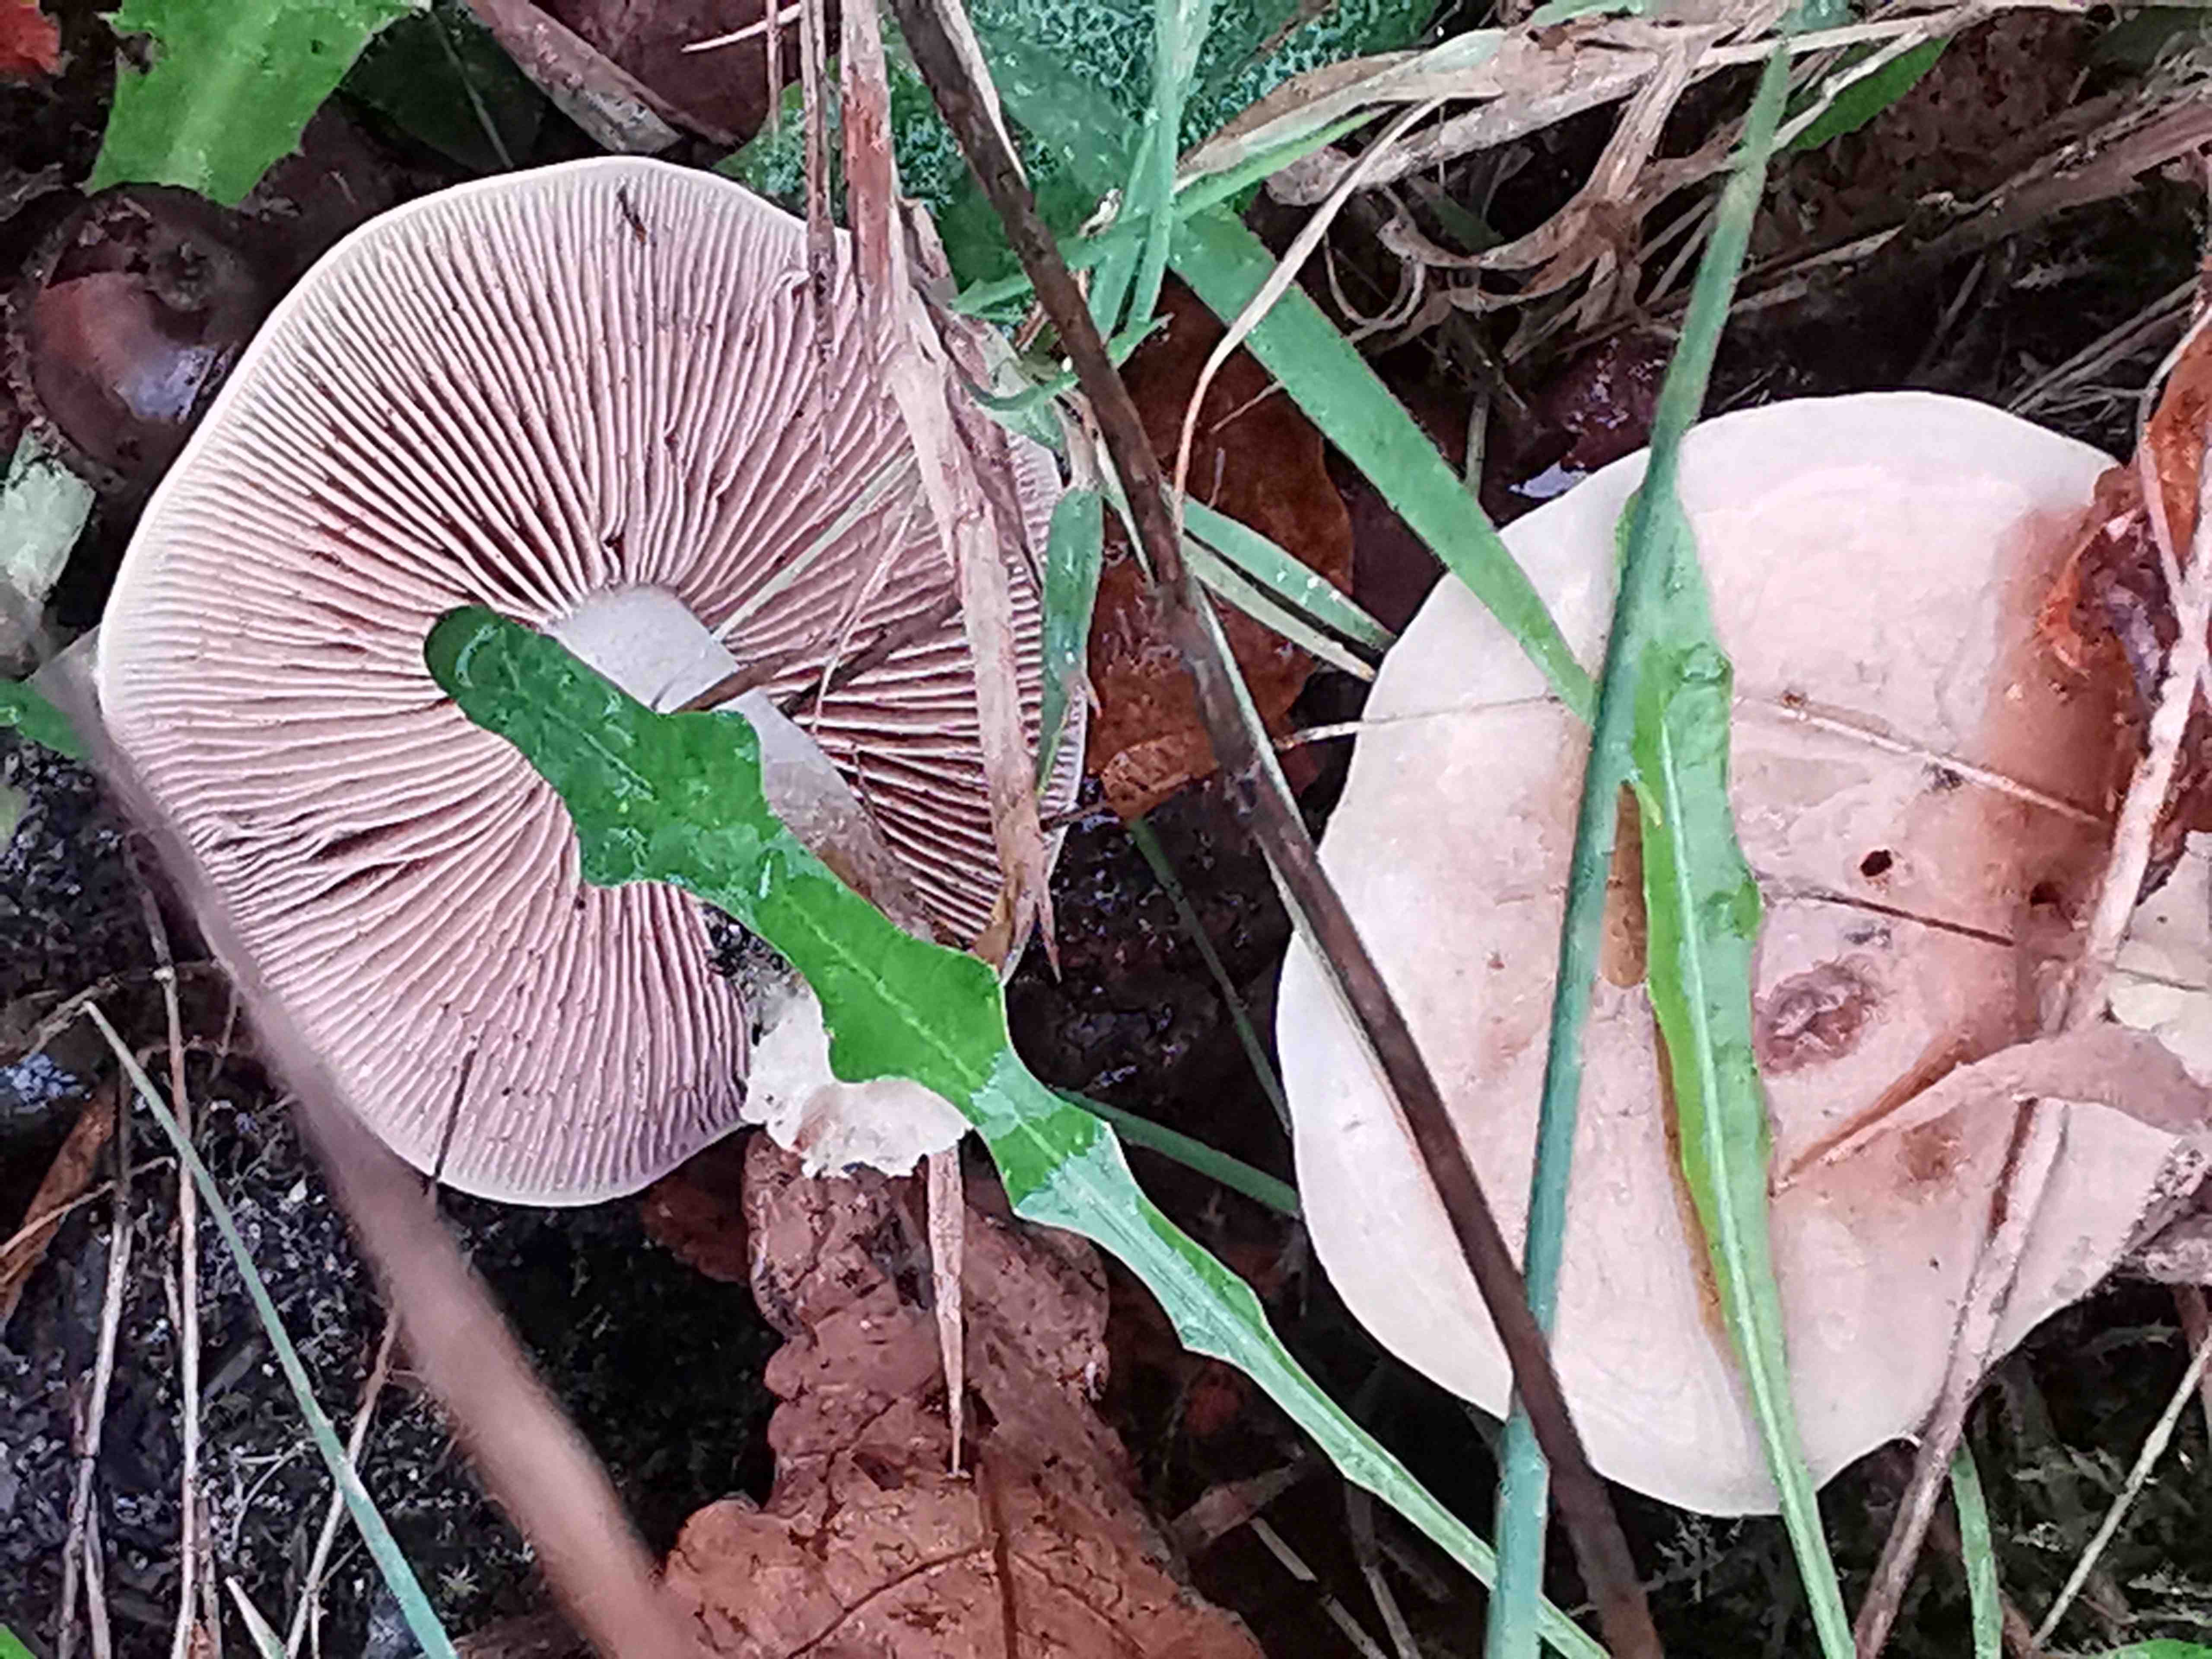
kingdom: Fungi
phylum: Basidiomycota
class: Agaricomycetes
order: Agaricales
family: Hymenogastraceae
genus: Hebeloma
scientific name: Hebeloma
